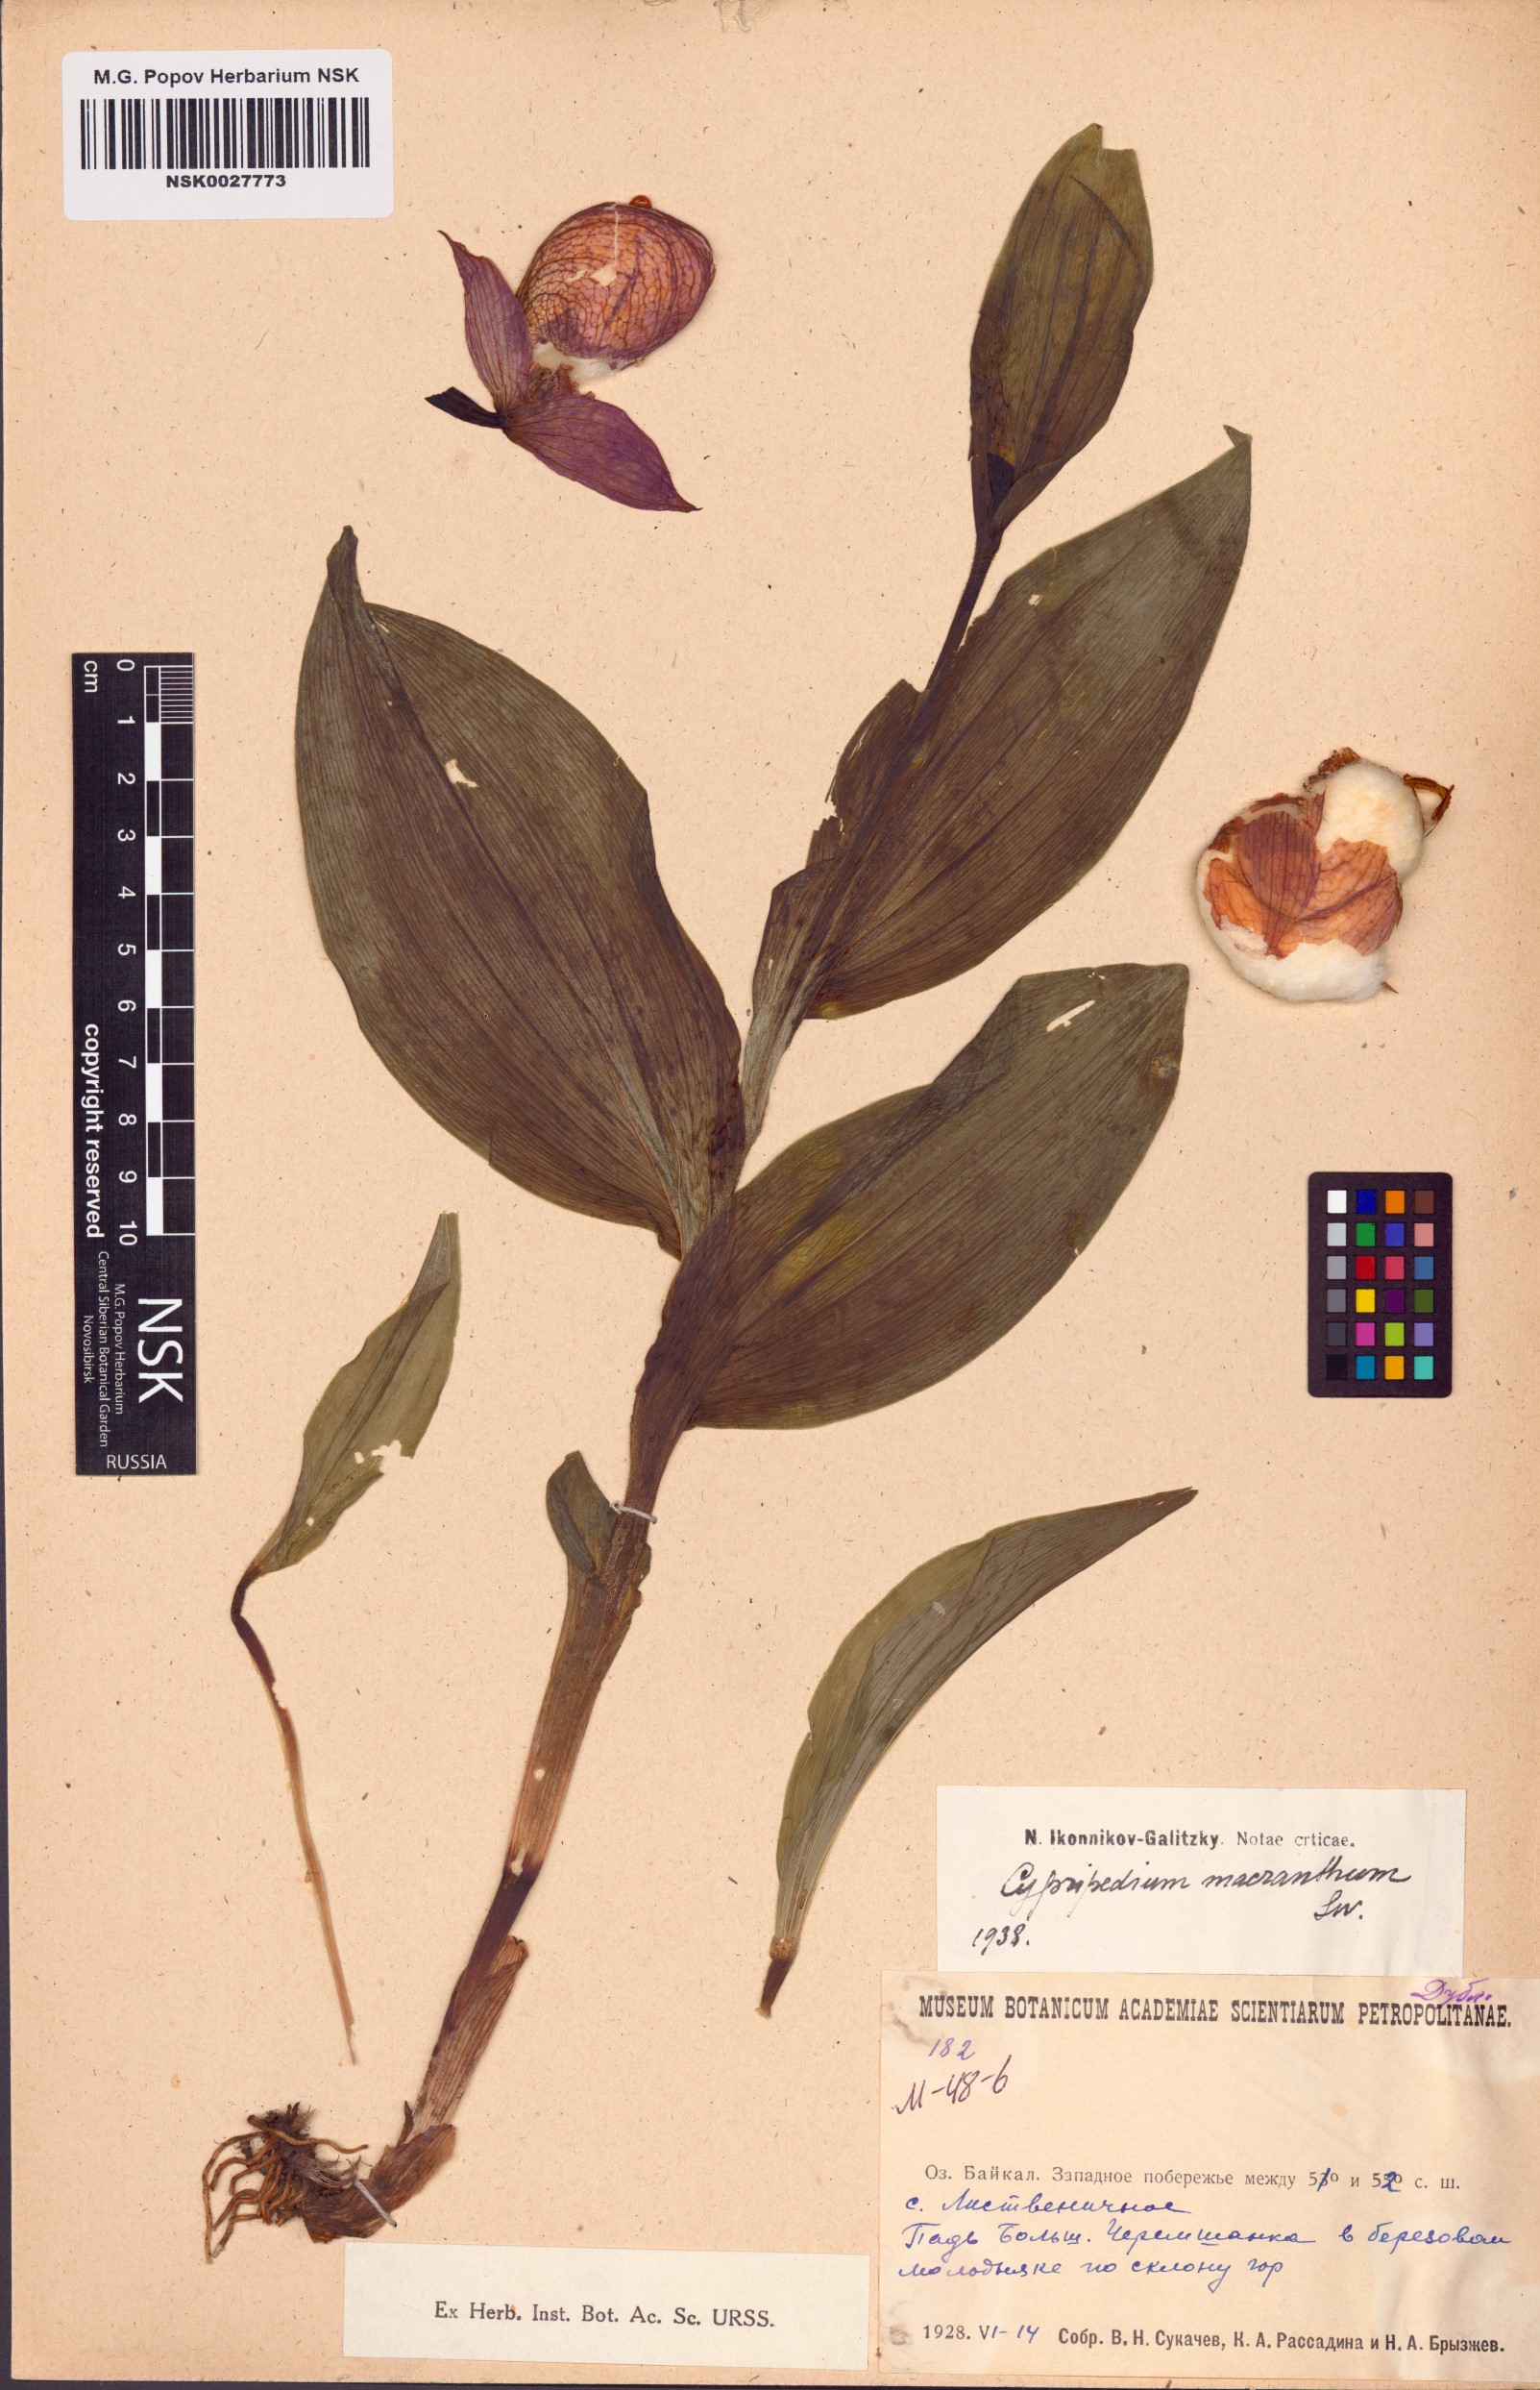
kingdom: Plantae
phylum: Tracheophyta
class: Liliopsida
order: Asparagales
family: Orchidaceae
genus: Cypripedium
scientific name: Cypripedium macranthos
